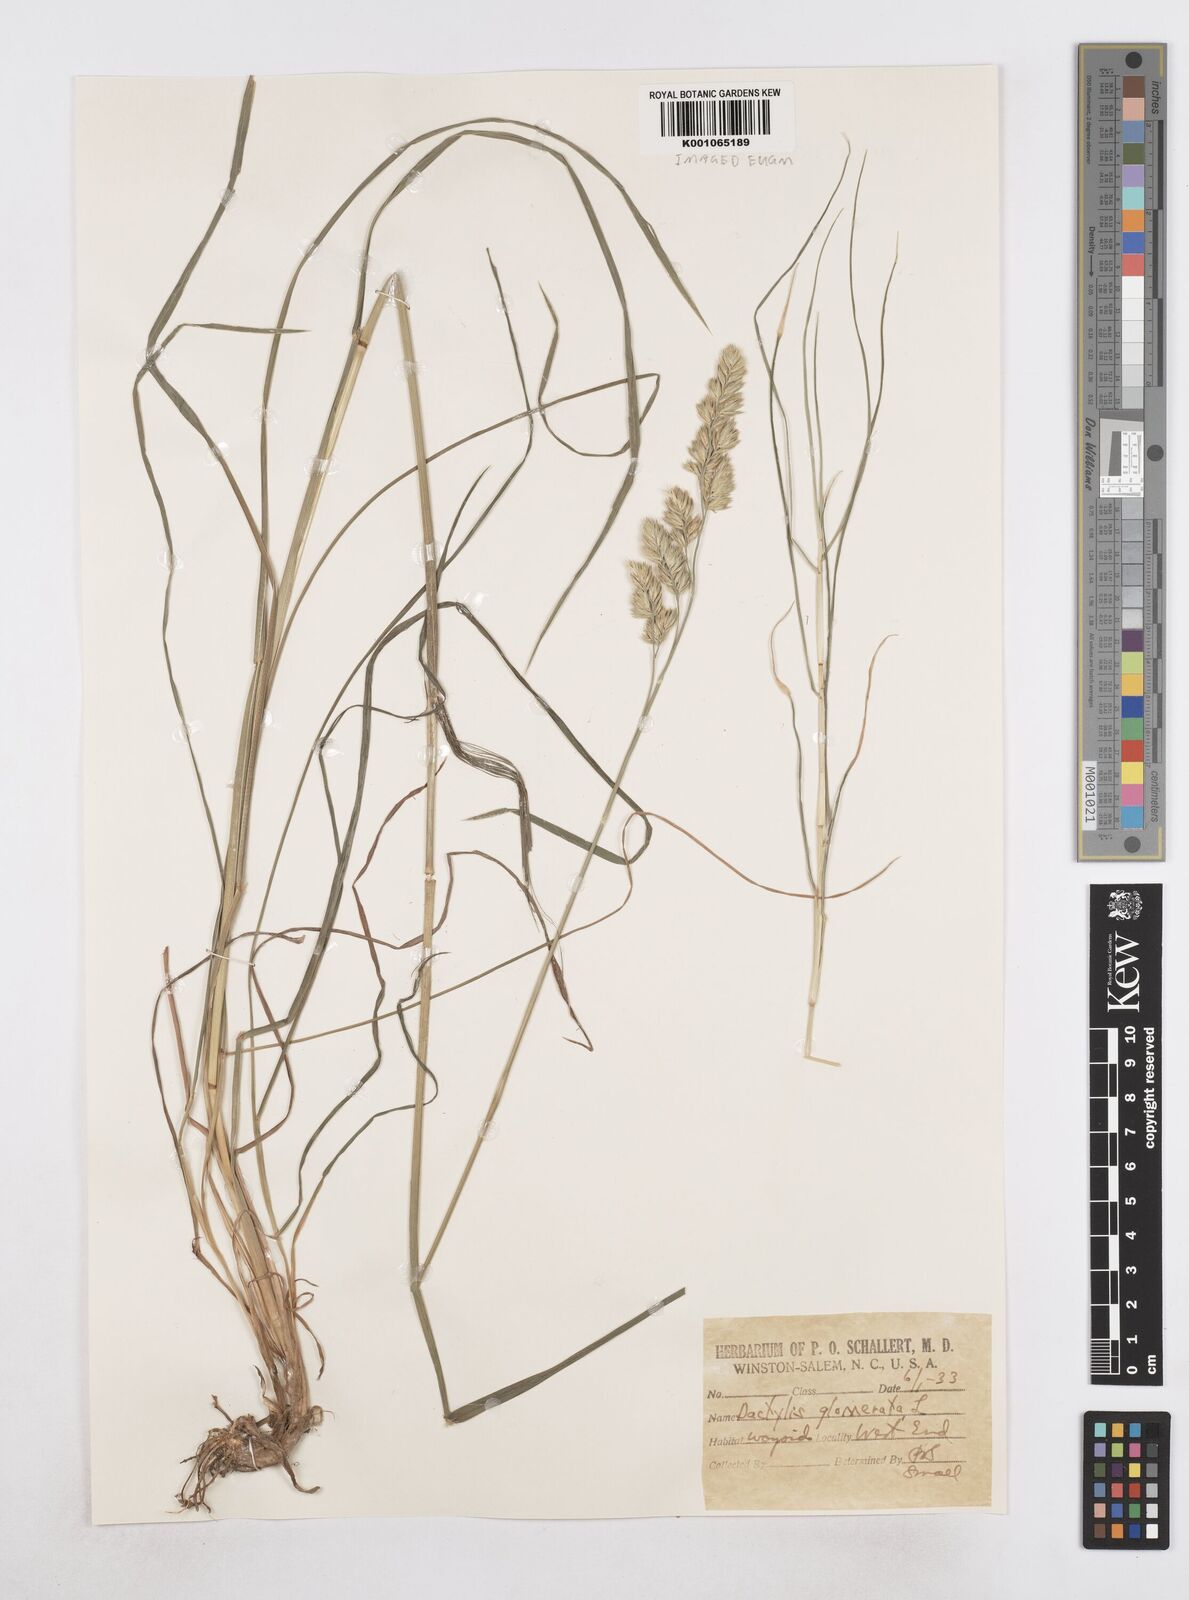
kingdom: Plantae
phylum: Tracheophyta
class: Liliopsida
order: Poales
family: Poaceae
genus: Dactylis
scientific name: Dactylis glomerata
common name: Orchardgrass
